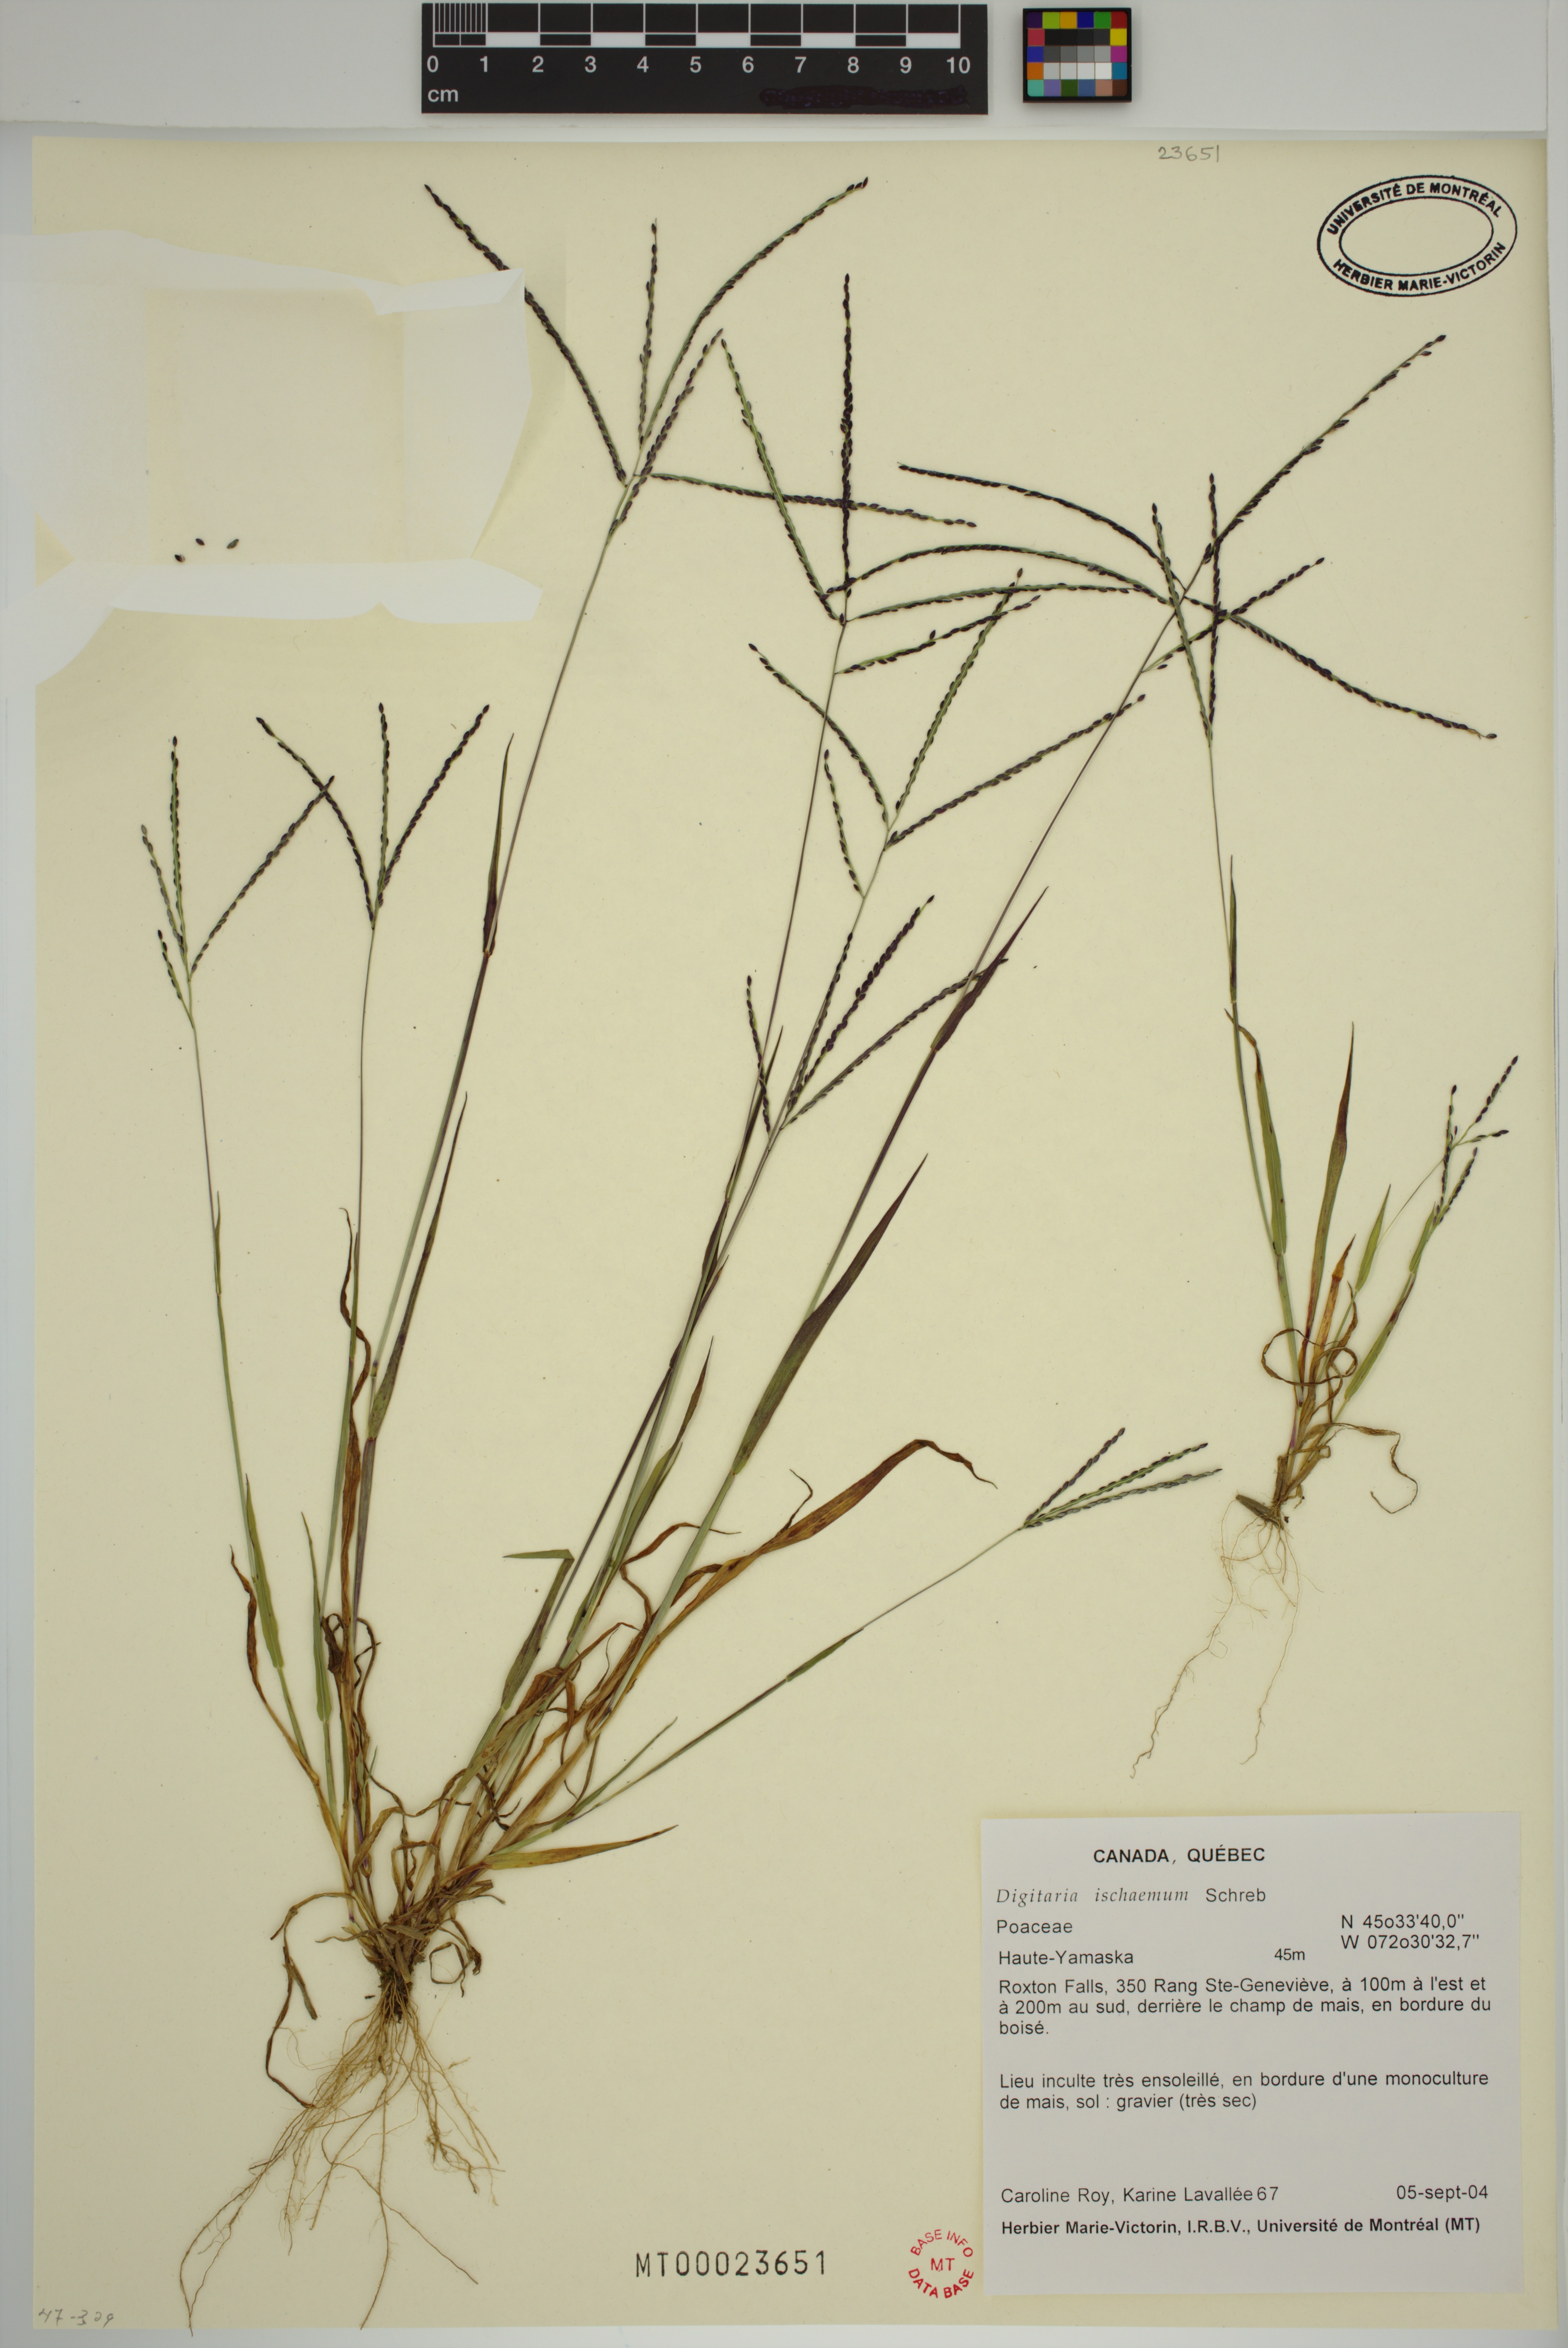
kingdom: Plantae
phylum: Tracheophyta
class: Liliopsida
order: Poales
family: Poaceae
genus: Digitaria
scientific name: Digitaria ischaemum
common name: Smooth crabgrass
